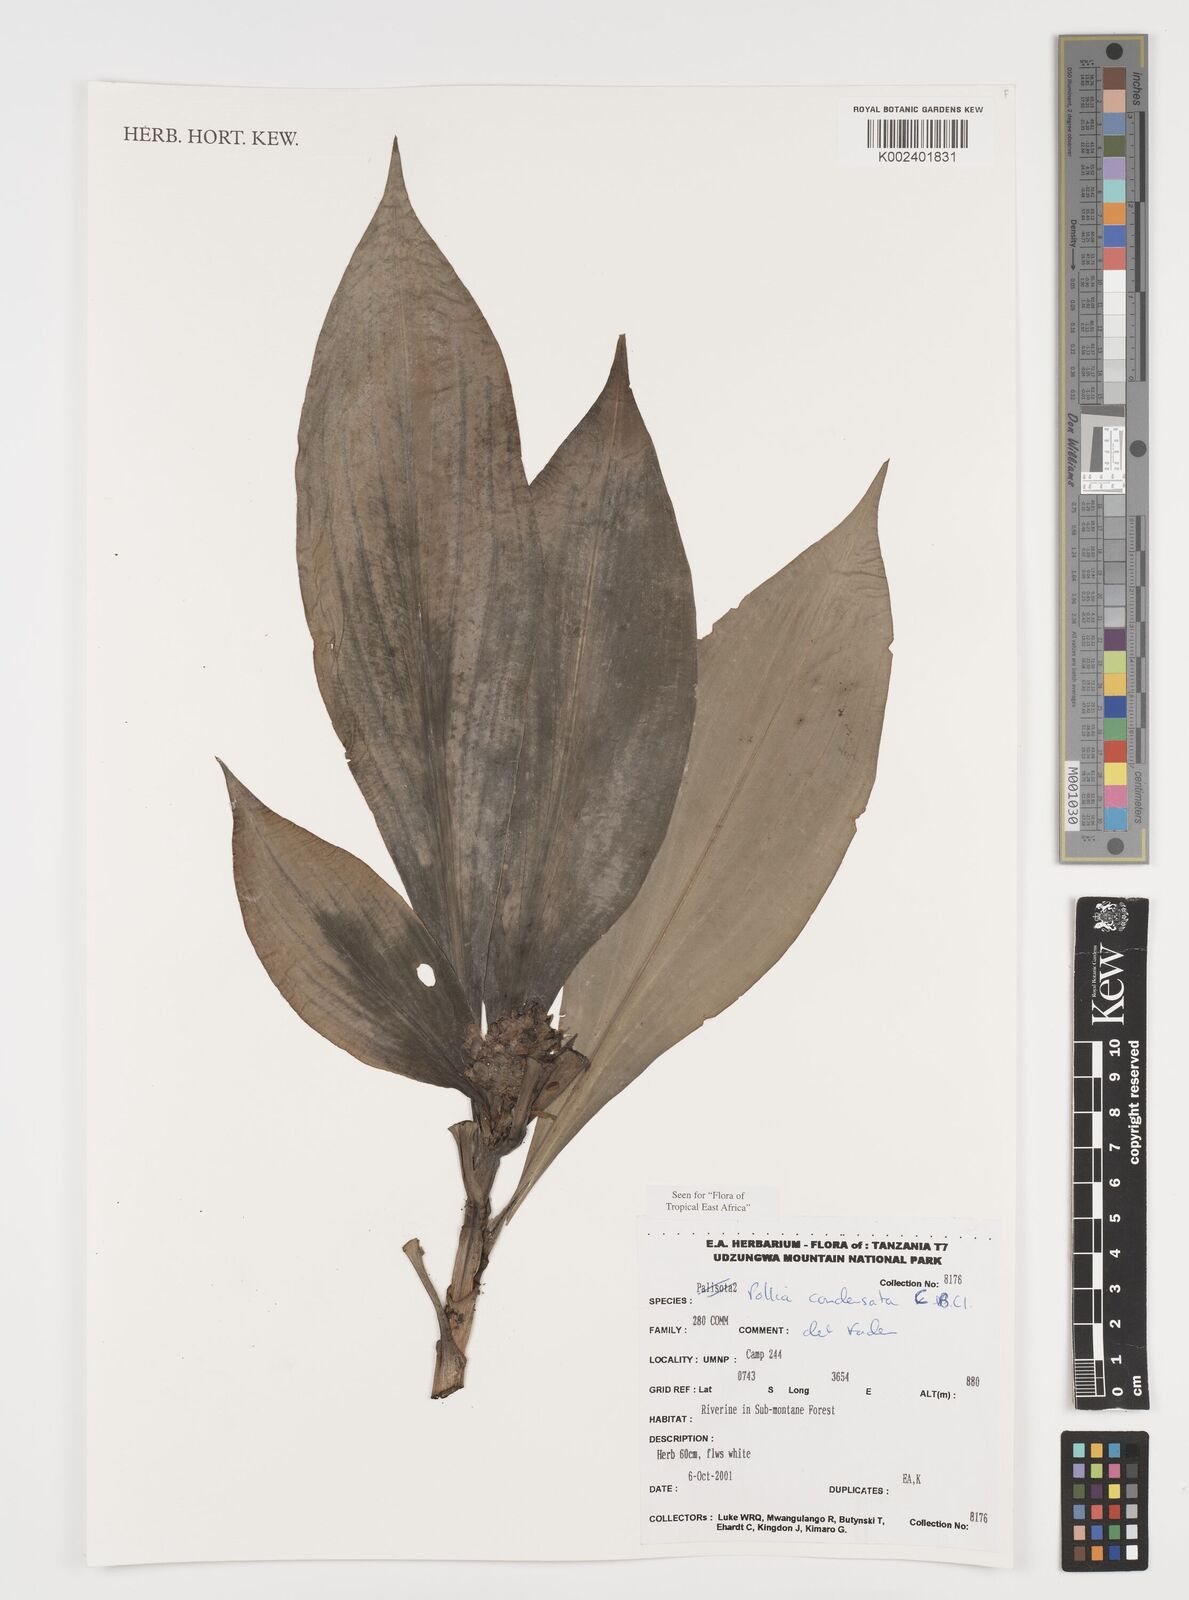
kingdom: Plantae
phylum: Tracheophyta
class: Liliopsida
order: Commelinales
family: Commelinaceae
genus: Pollia
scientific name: Pollia condensata
